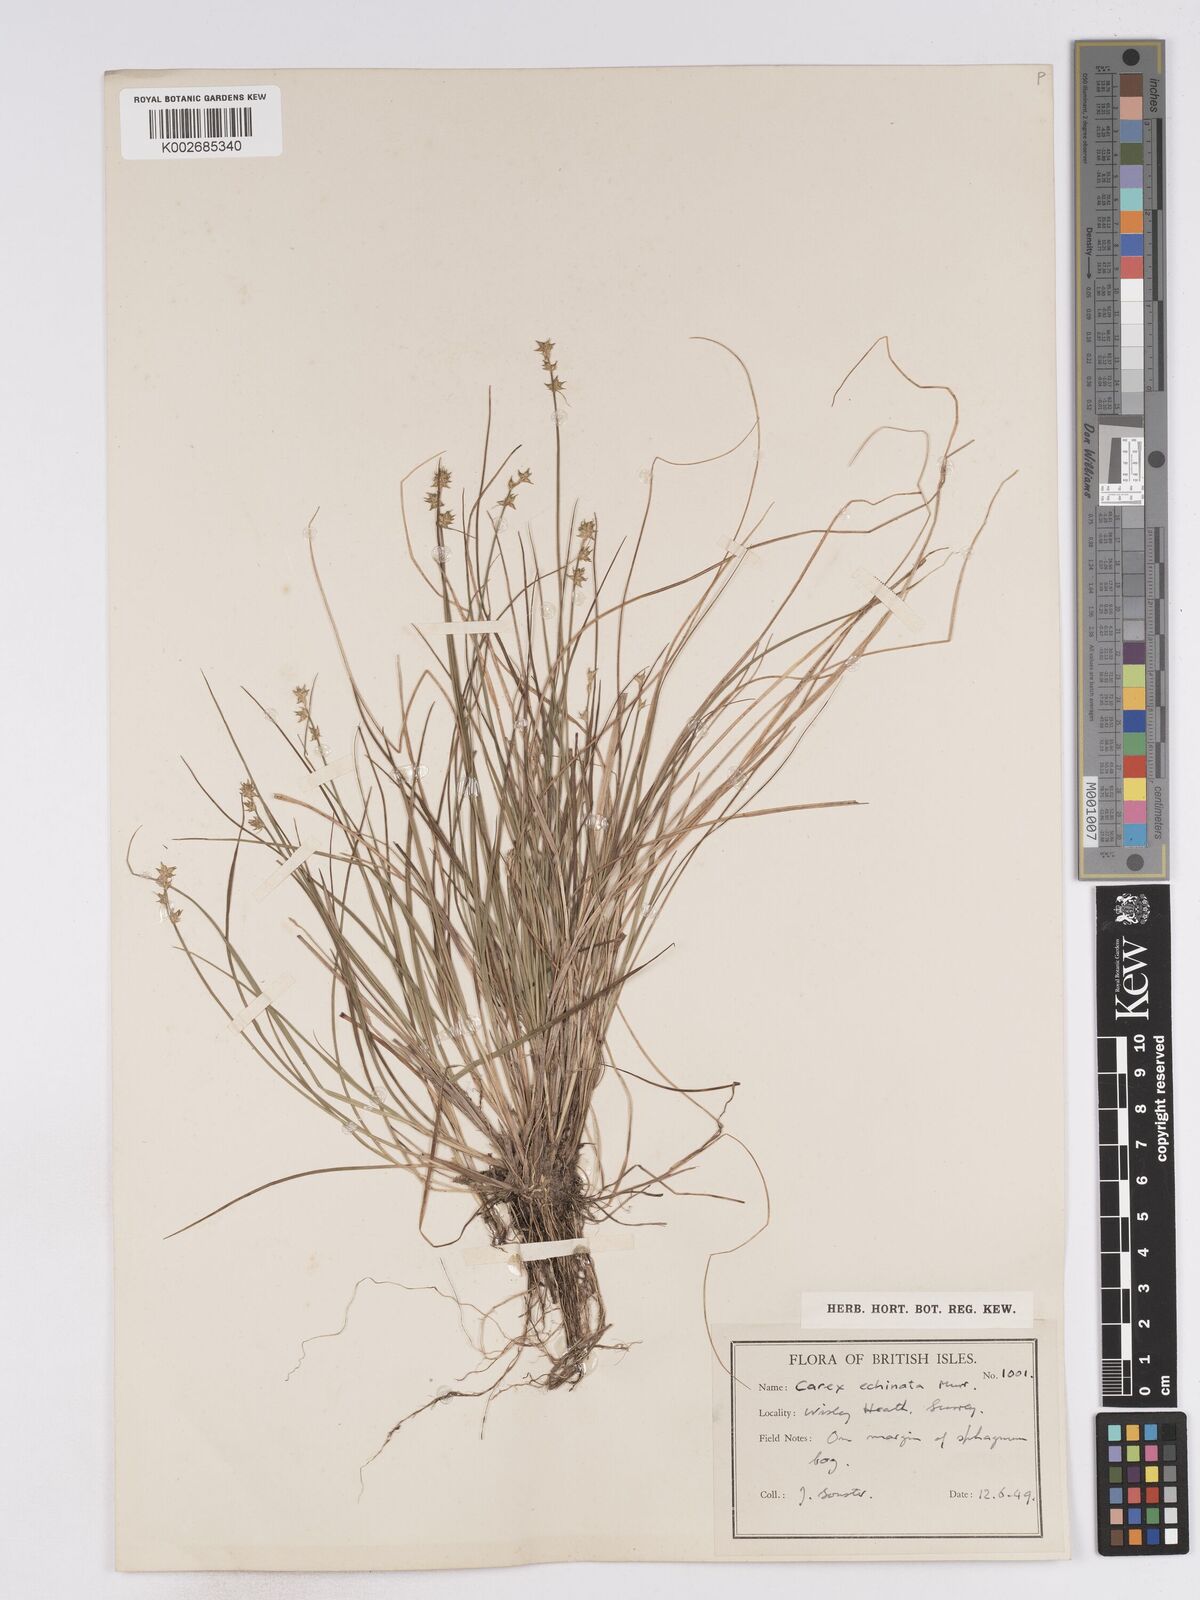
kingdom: Plantae
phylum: Tracheophyta
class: Liliopsida
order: Poales
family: Cyperaceae
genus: Carex
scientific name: Carex echinata
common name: Star sedge
